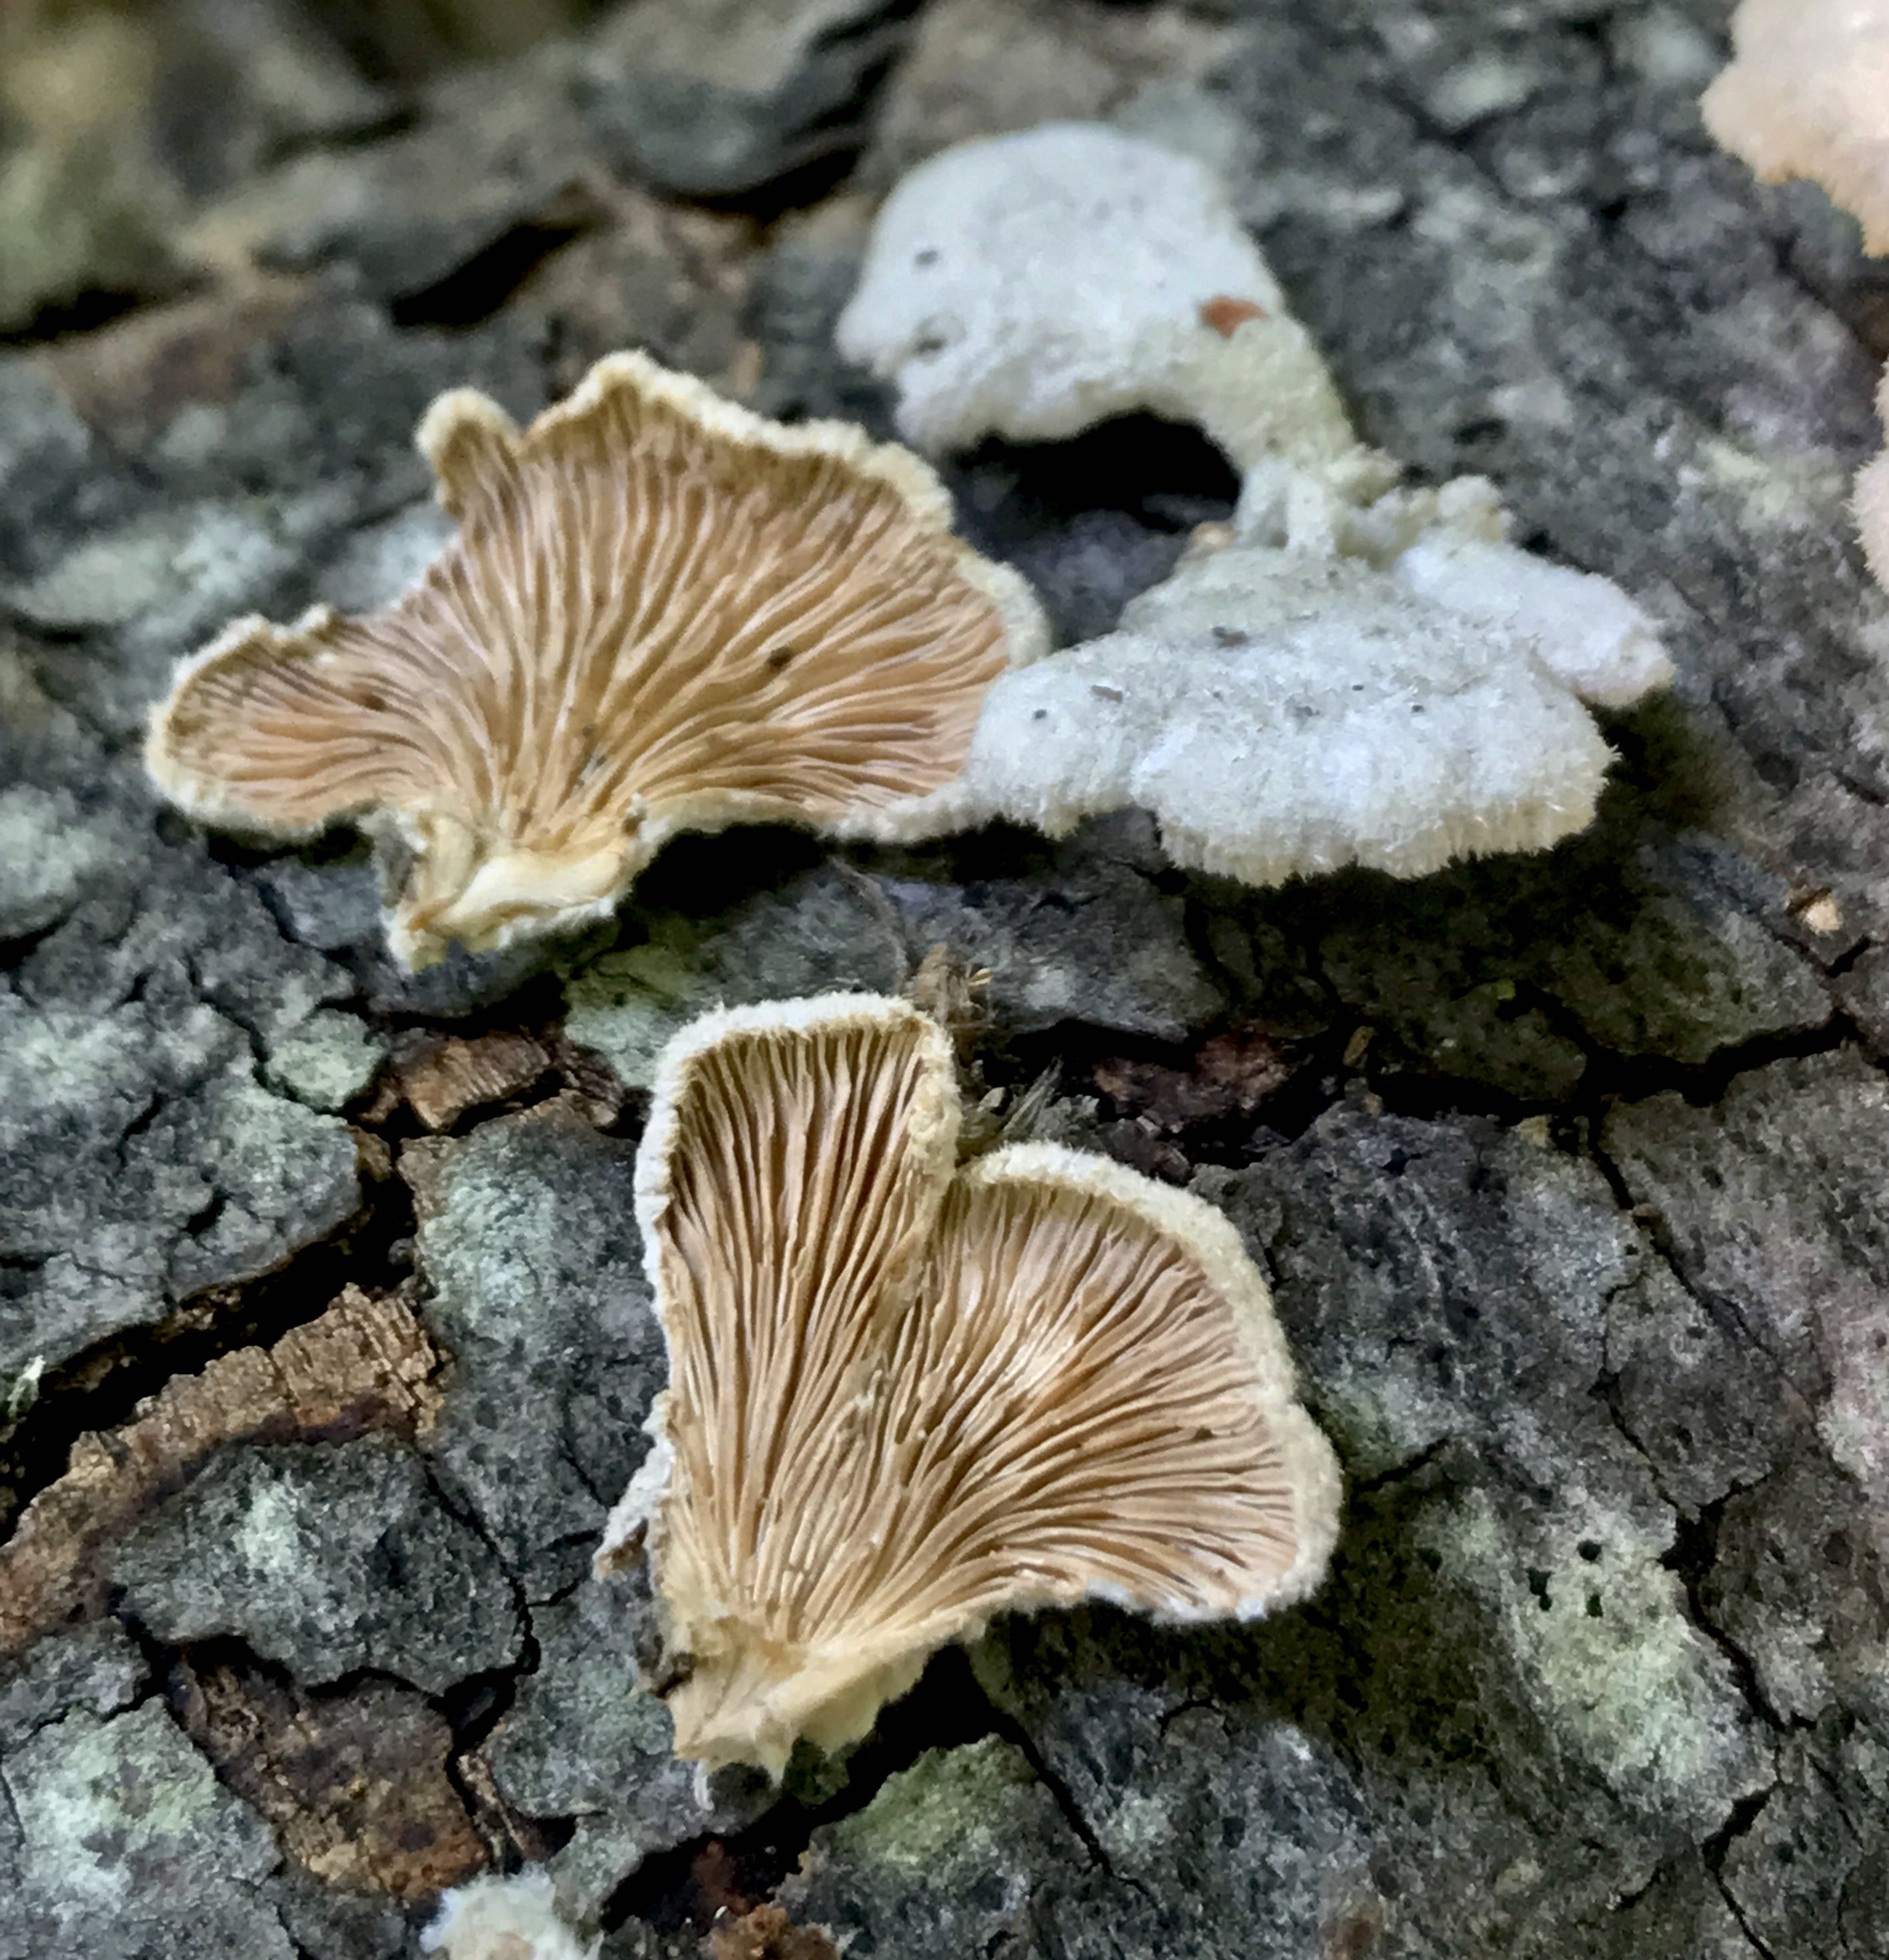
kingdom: Fungi
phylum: Basidiomycota
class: Agaricomycetes
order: Agaricales
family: Schizophyllaceae
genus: Schizophyllum
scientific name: Schizophyllum commune
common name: kløvblad
